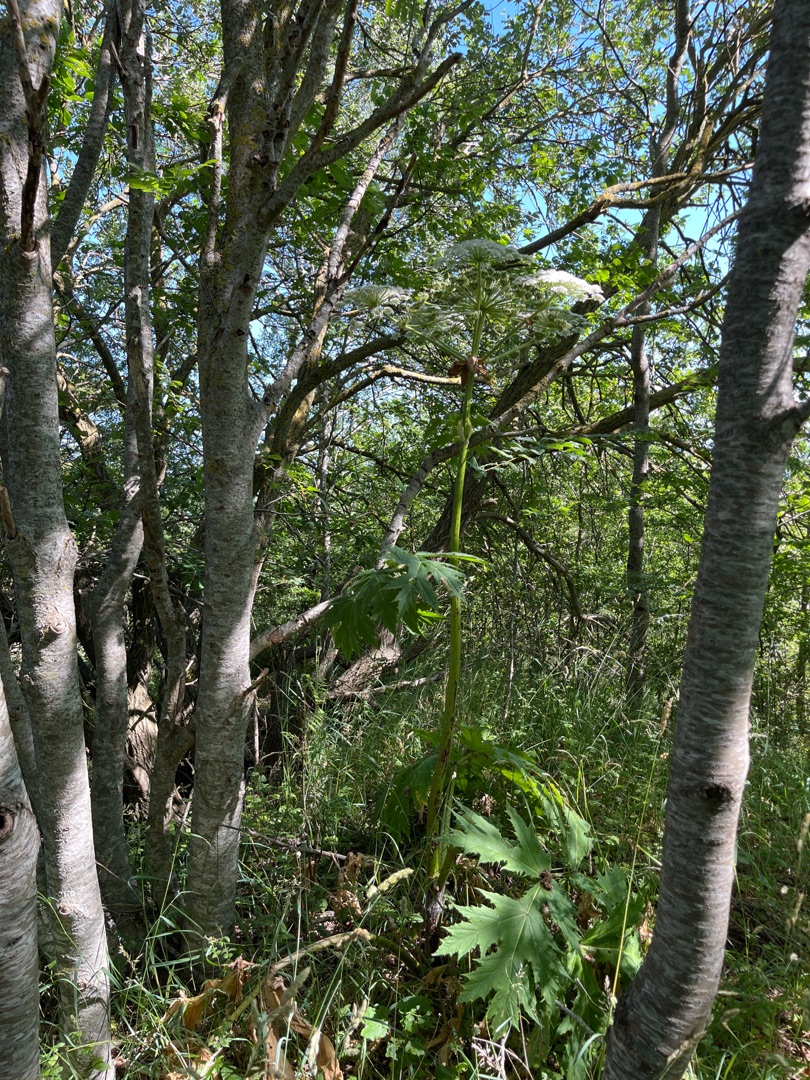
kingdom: Plantae
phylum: Tracheophyta
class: Magnoliopsida
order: Apiales
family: Apiaceae
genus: Heracleum
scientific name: Heracleum mantegazzianum
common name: Kæmpe-bjørneklo
